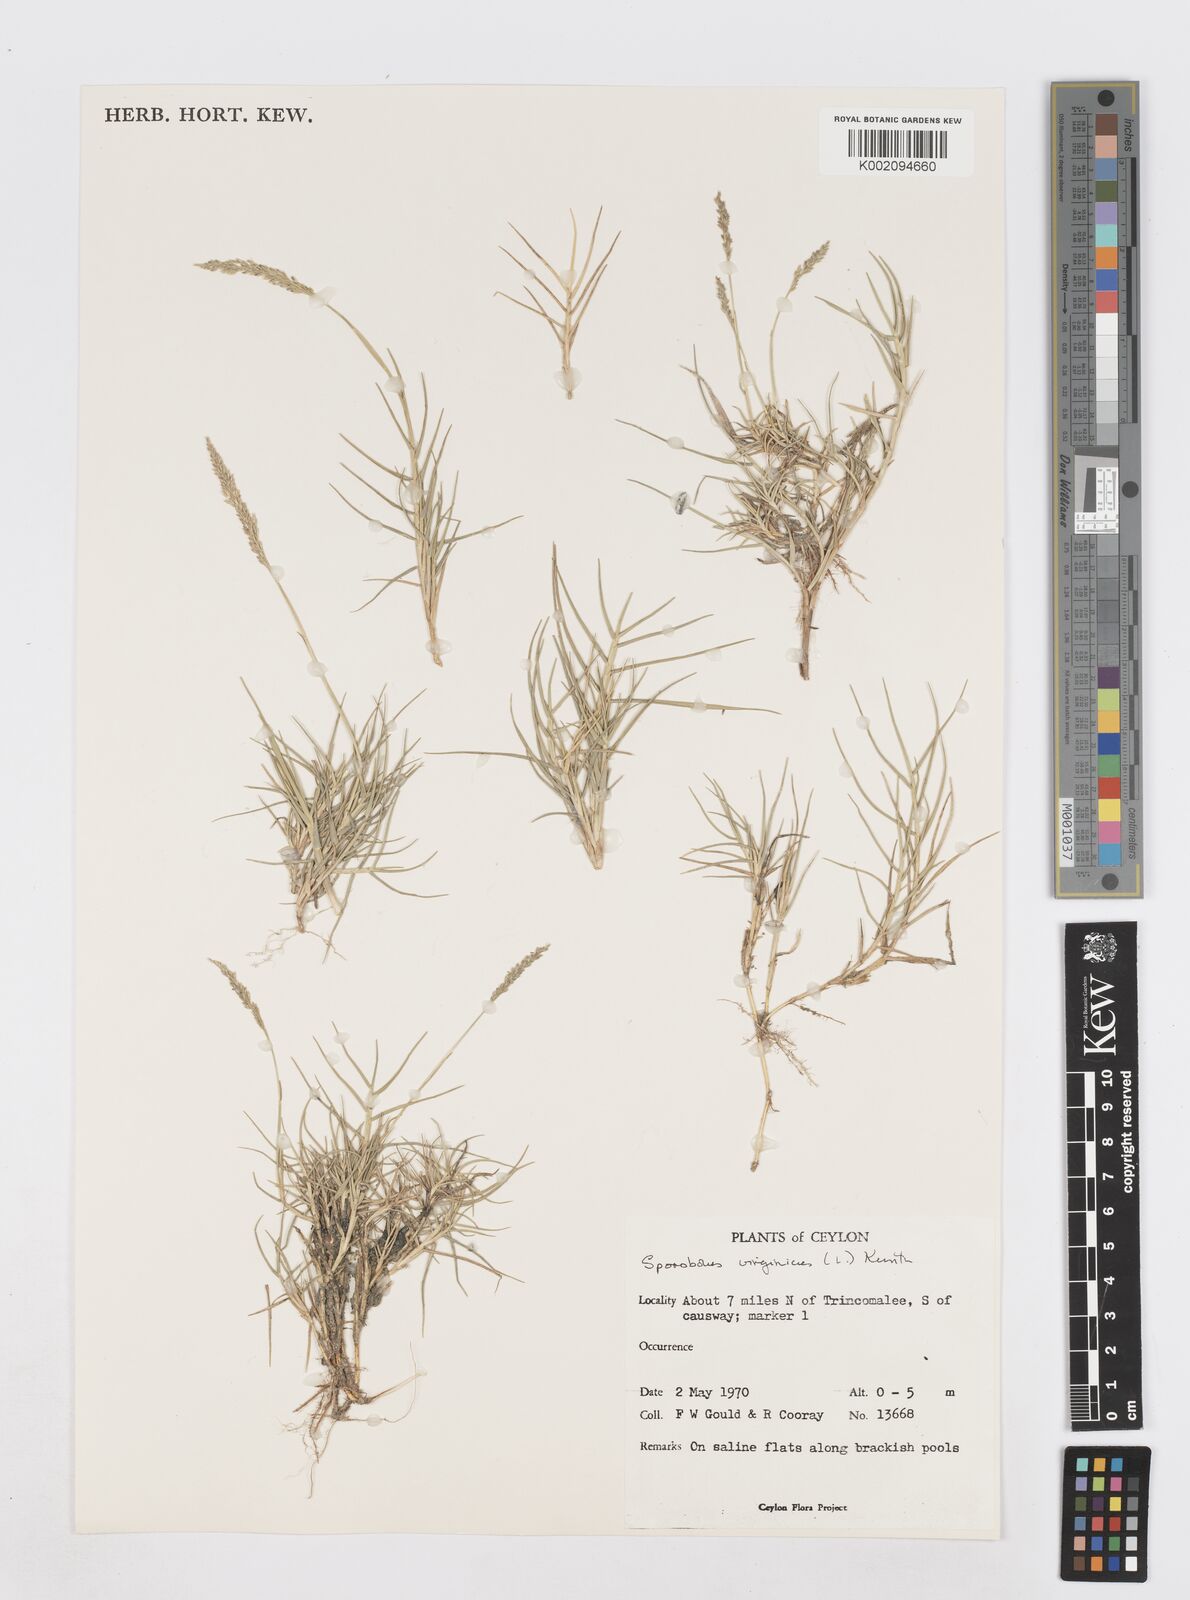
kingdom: Plantae
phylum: Tracheophyta
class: Liliopsida
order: Poales
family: Poaceae
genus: Sporobolus
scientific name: Sporobolus virginicus
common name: Beach dropseed
